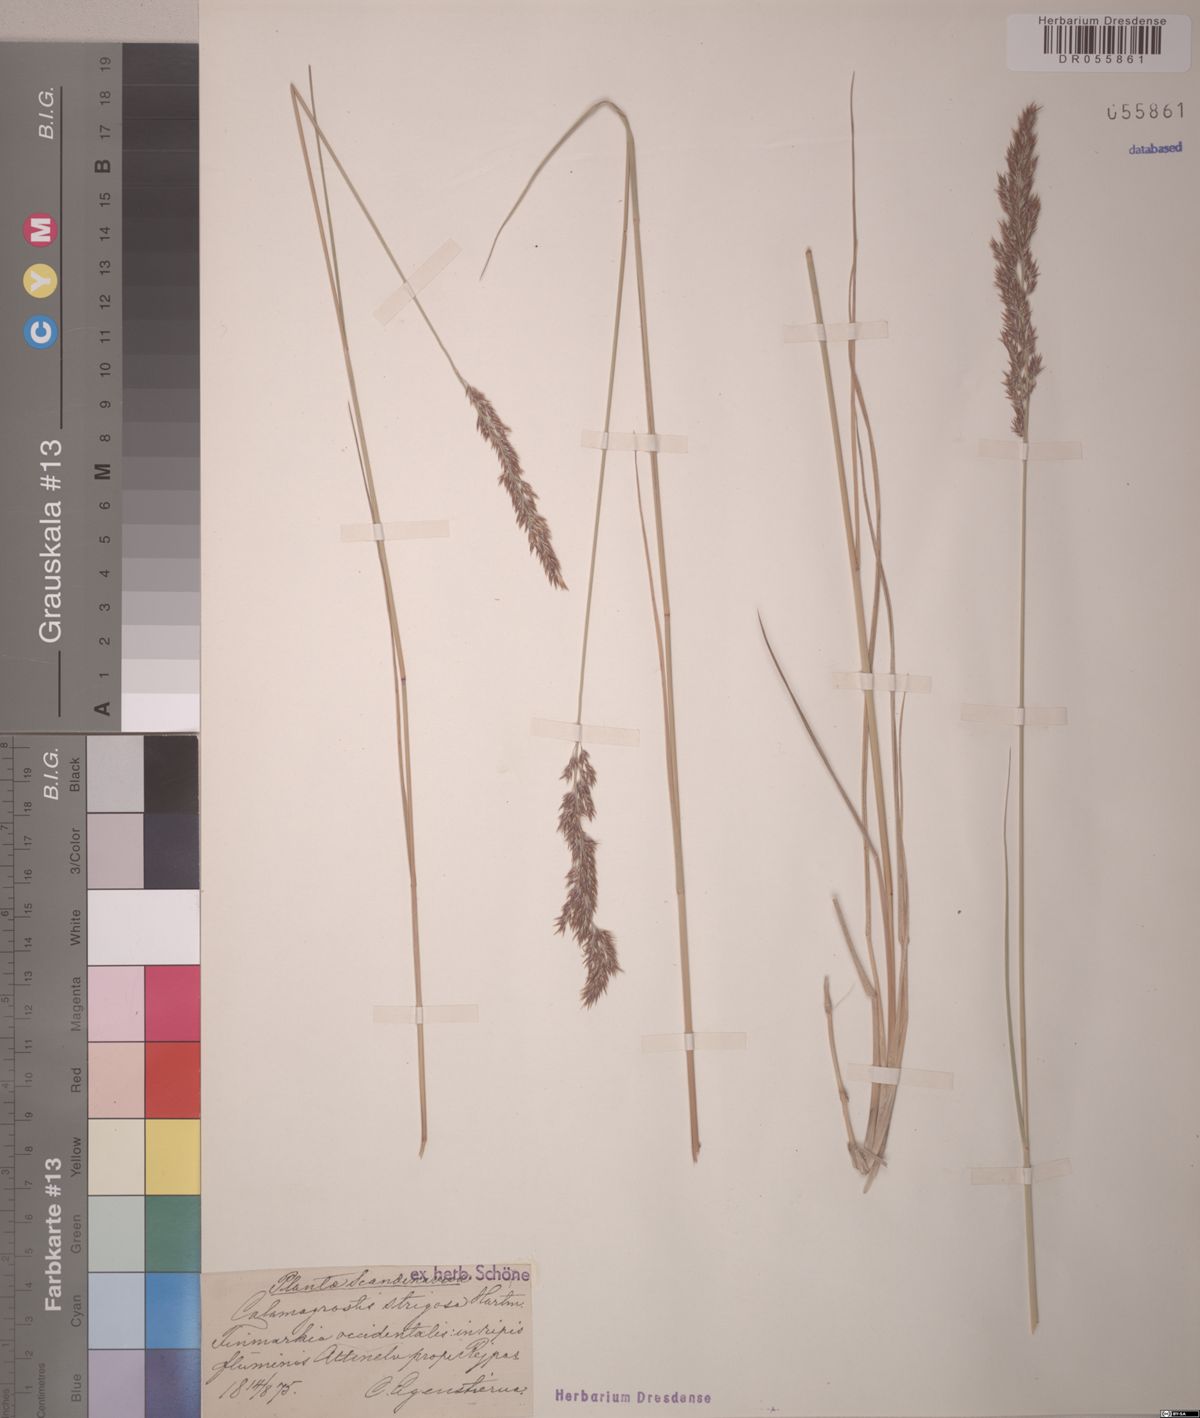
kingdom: Plantae
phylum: Tracheophyta
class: Liliopsida
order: Poales
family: Poaceae
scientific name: Poaceae
